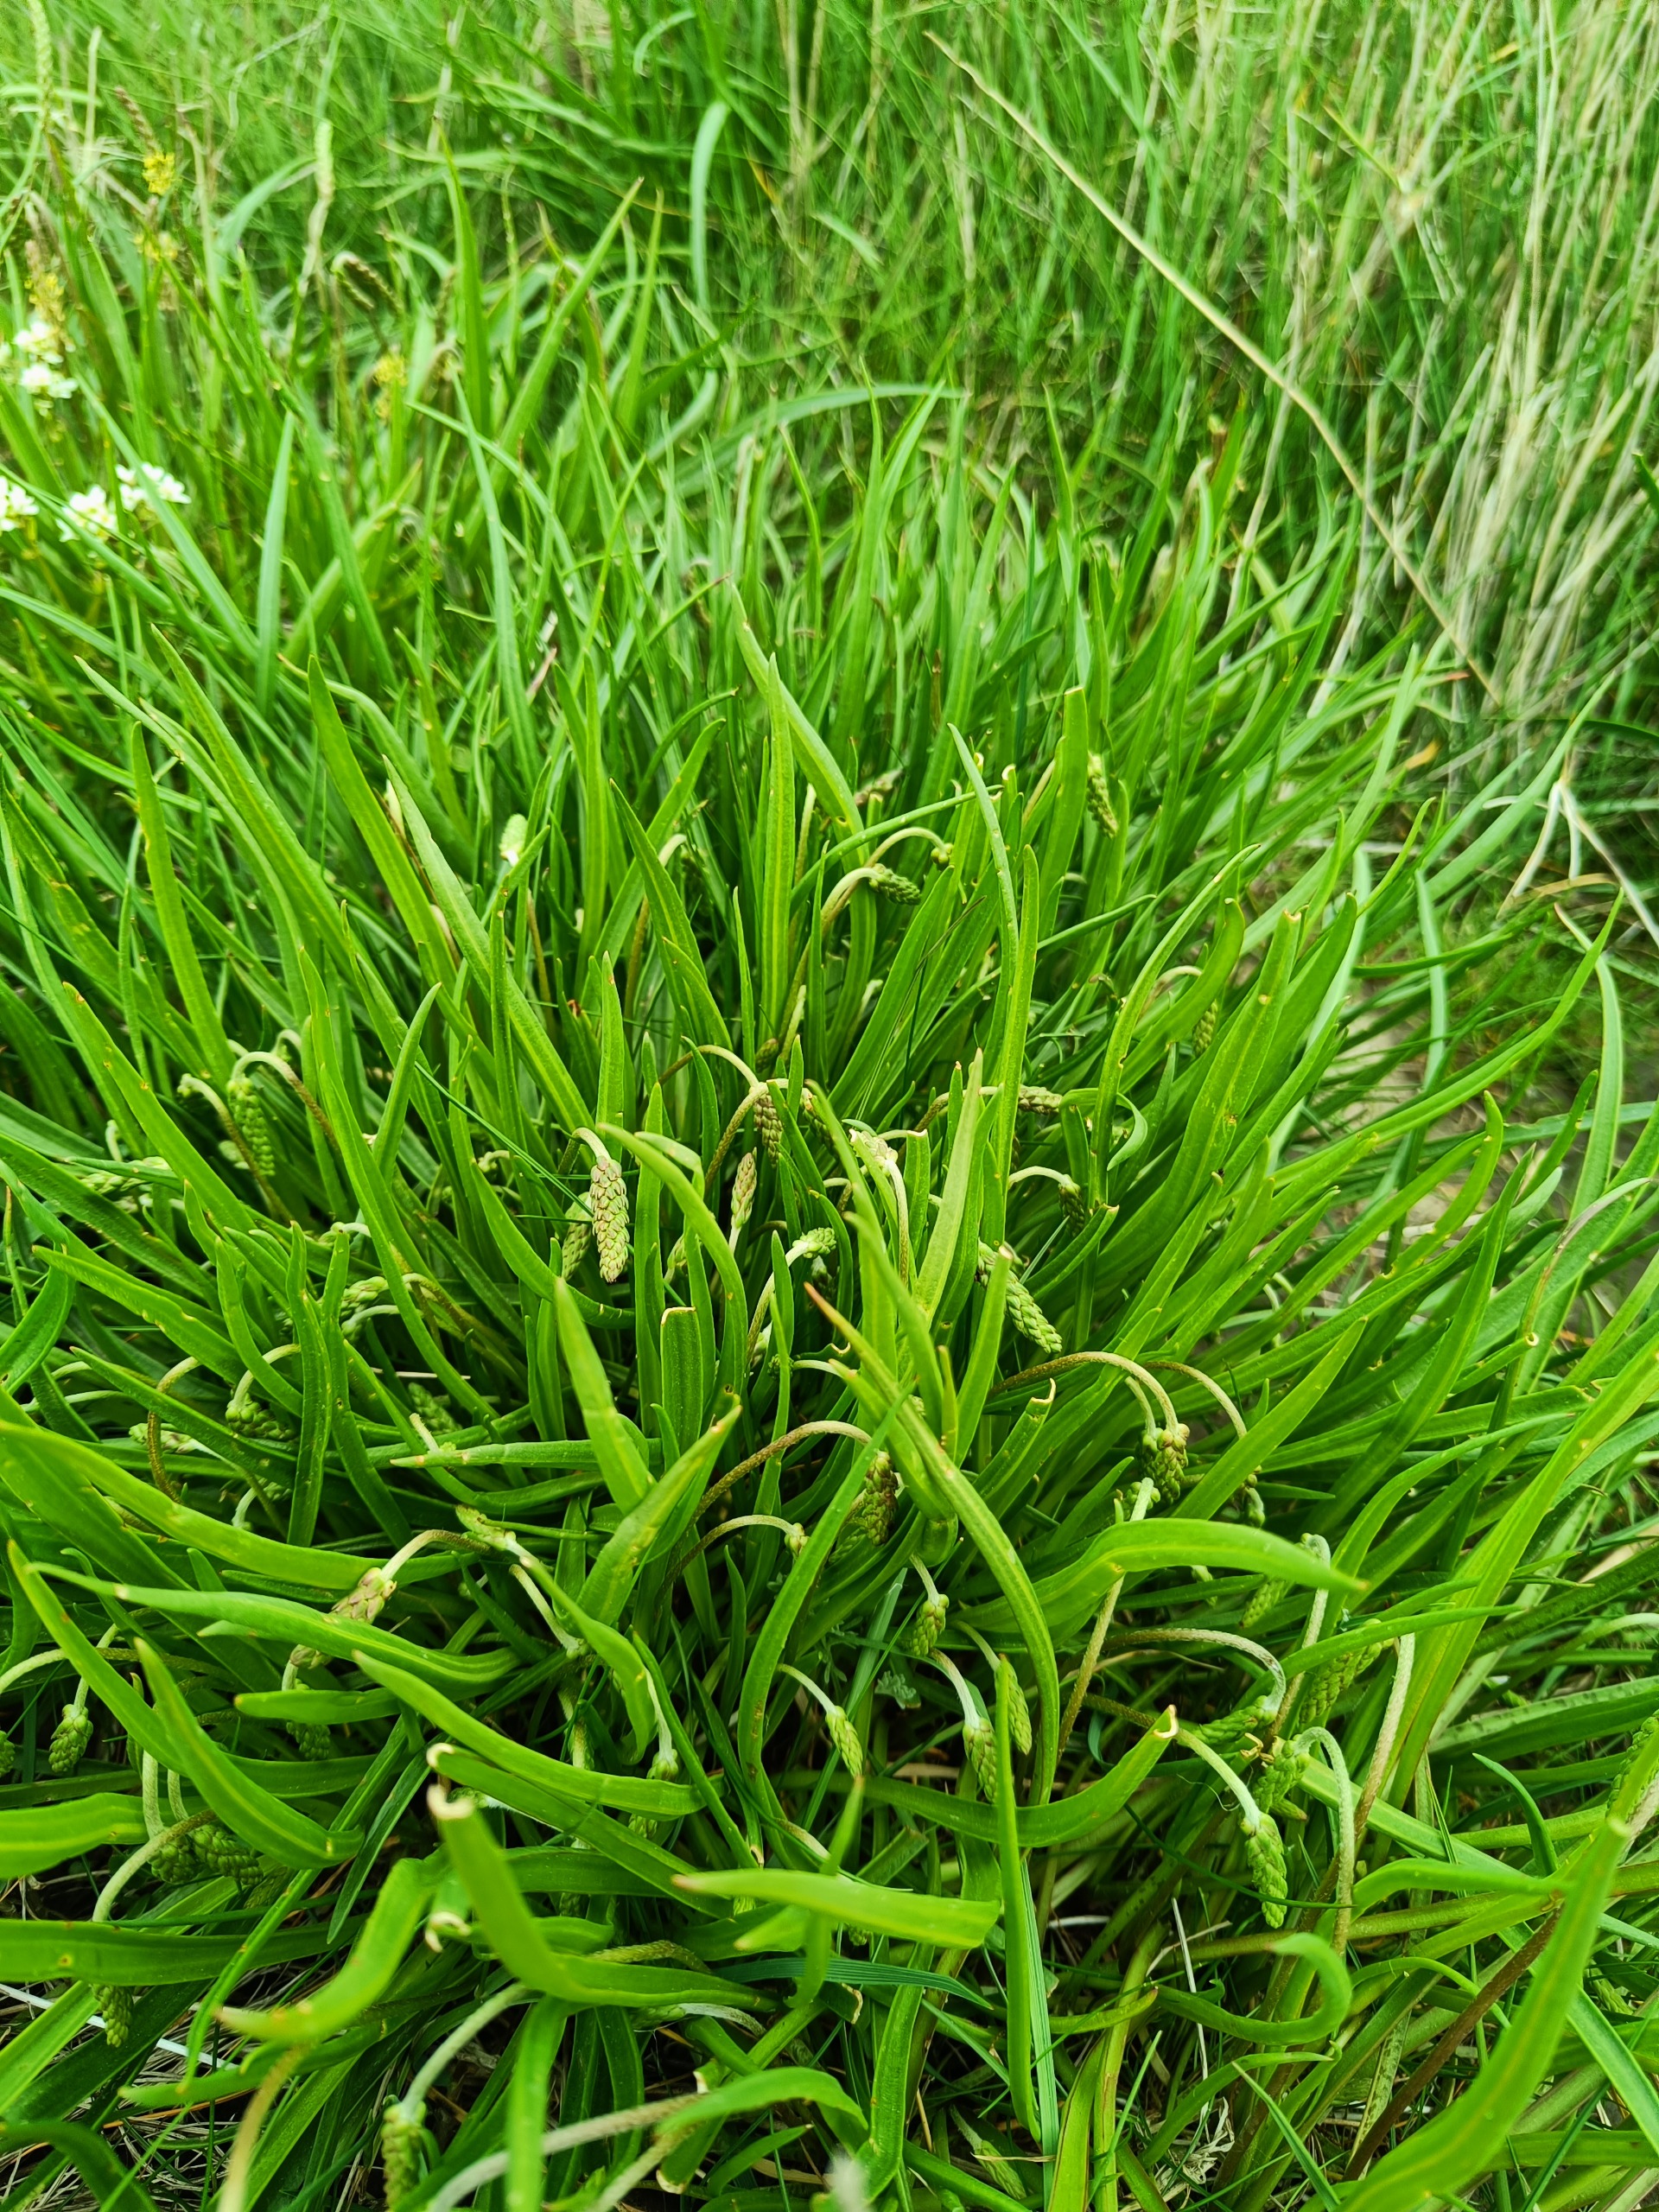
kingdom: Plantae
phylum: Tracheophyta
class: Magnoliopsida
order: Lamiales
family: Plantaginaceae
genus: Plantago
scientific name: Plantago maritima
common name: Strand-vejbred
